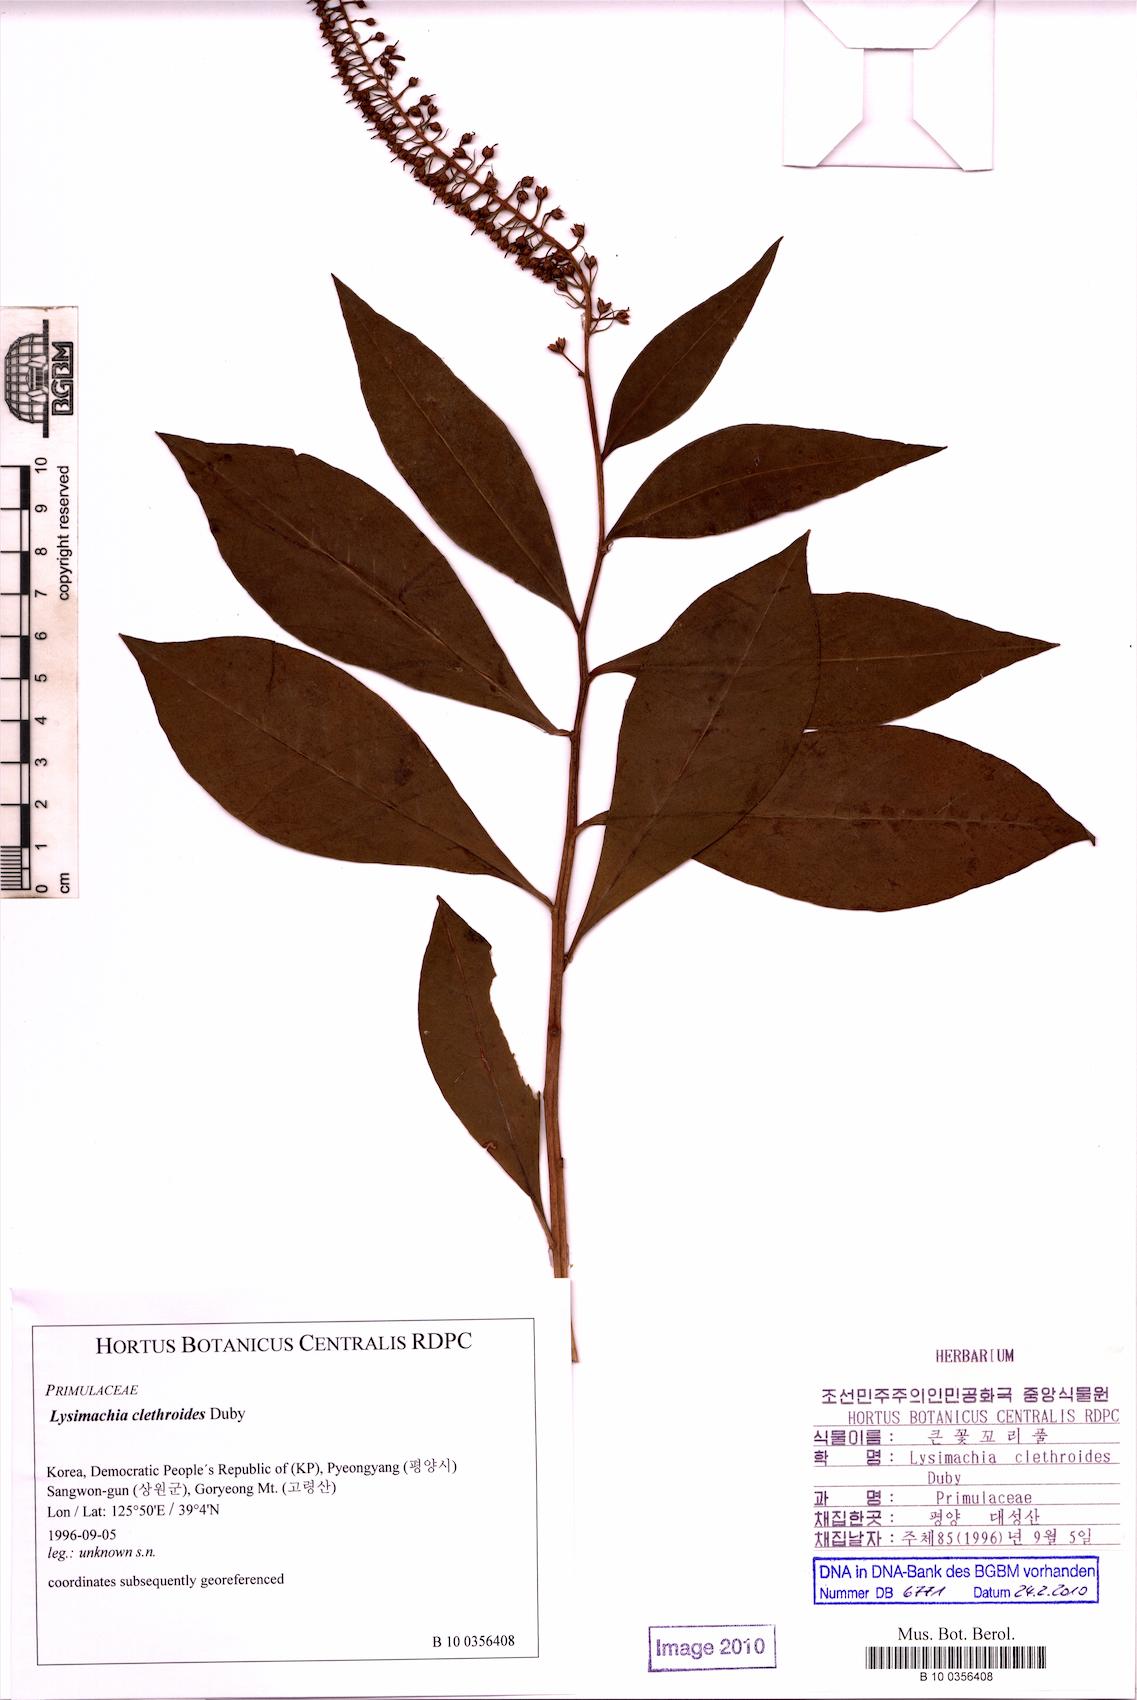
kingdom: Plantae
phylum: Tracheophyta
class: Magnoliopsida
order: Ericales
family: Primulaceae
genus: Lysimachia
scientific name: Lysimachia clethroides
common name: Gooseneck loosestrife
